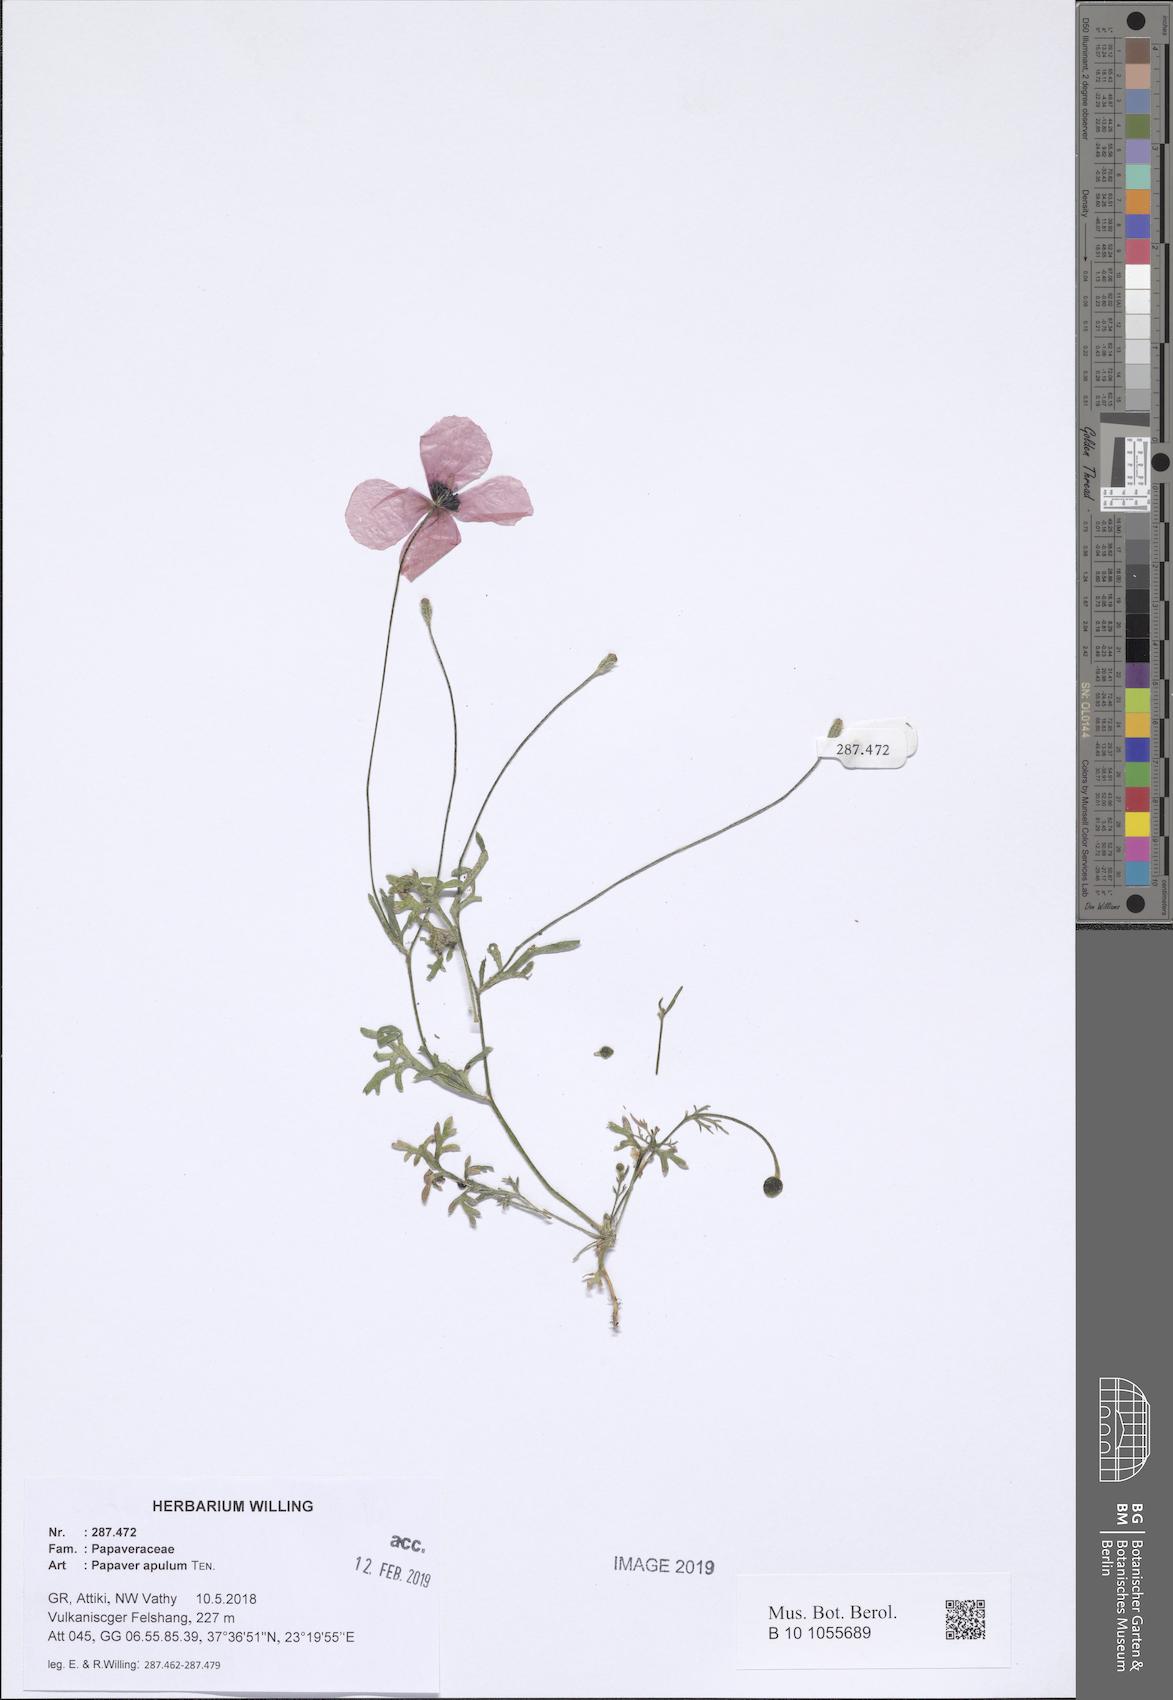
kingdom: Plantae
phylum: Tracheophyta
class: Magnoliopsida
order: Ranunculales
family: Papaveraceae
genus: Roemeria
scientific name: Roemeria apula
